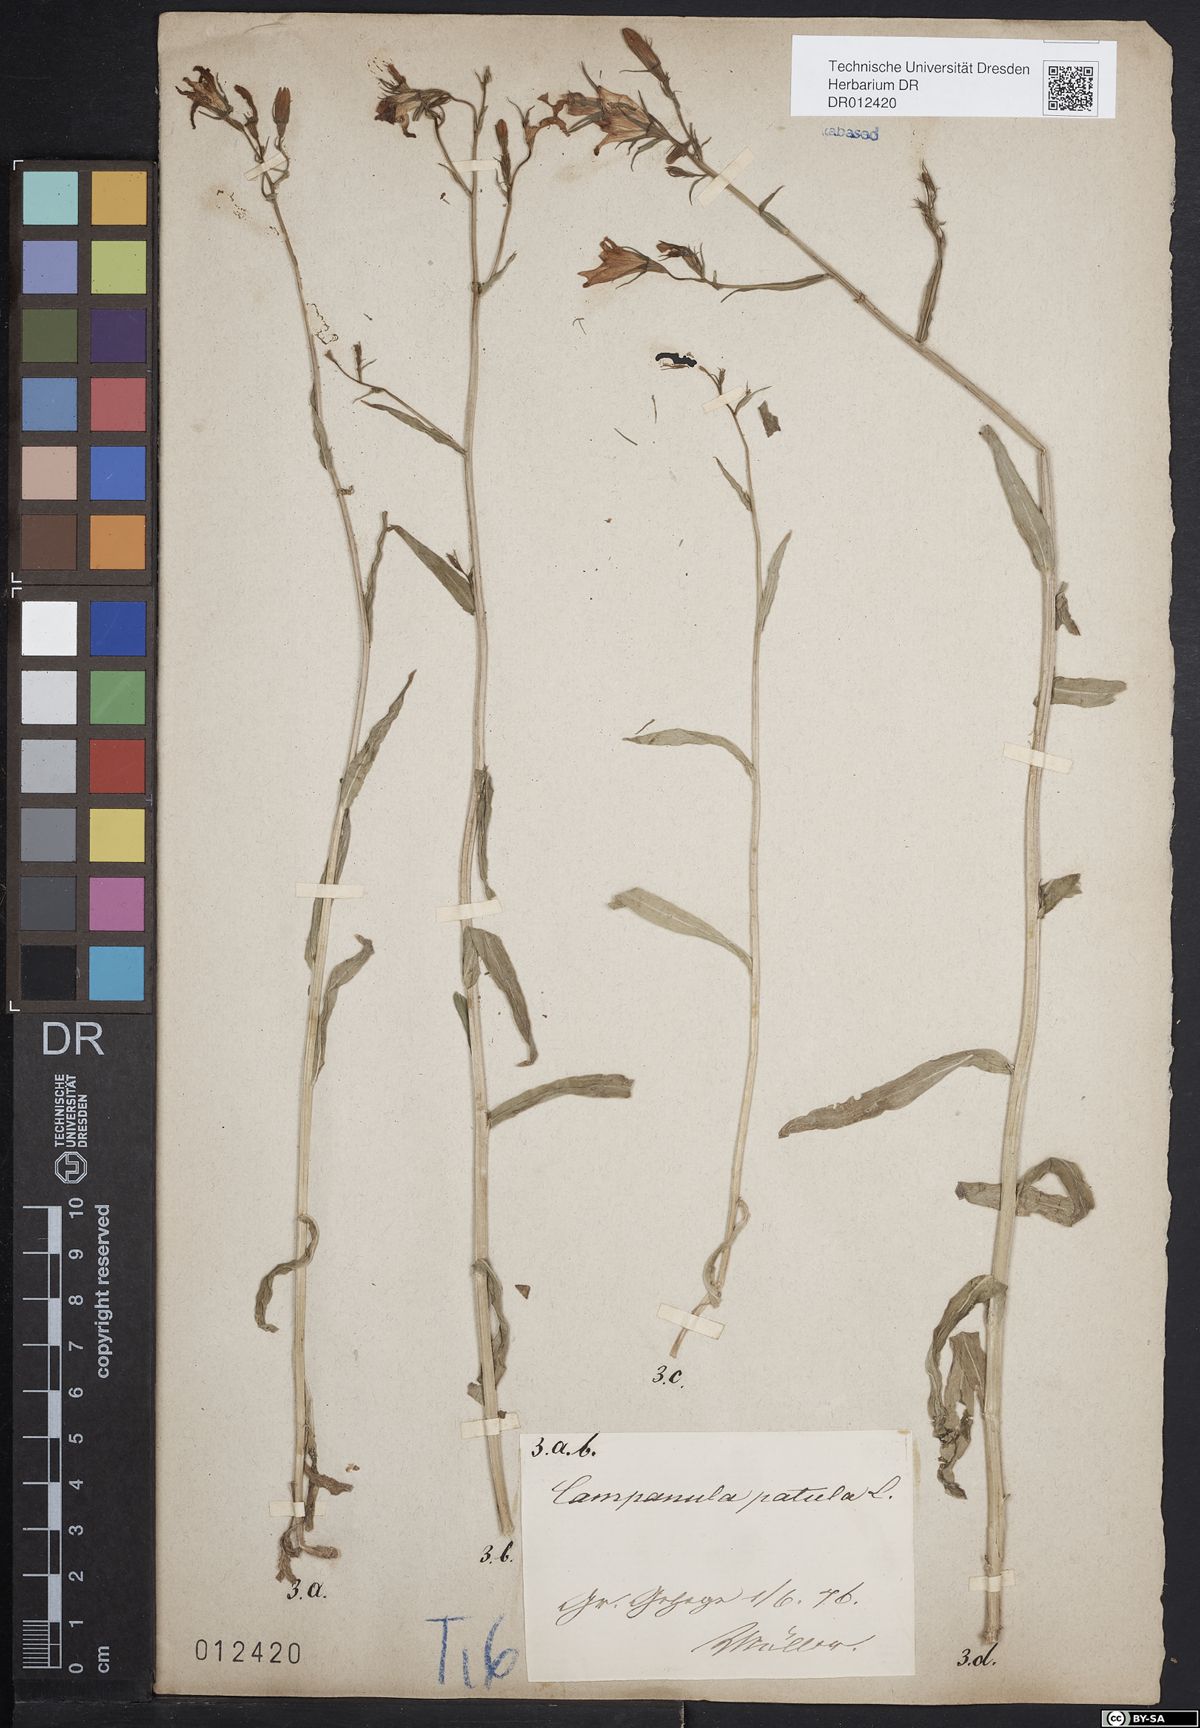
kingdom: Plantae
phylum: Tracheophyta
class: Magnoliopsida
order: Asterales
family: Campanulaceae
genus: Campanula
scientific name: Campanula patula
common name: Spreading bellflower
